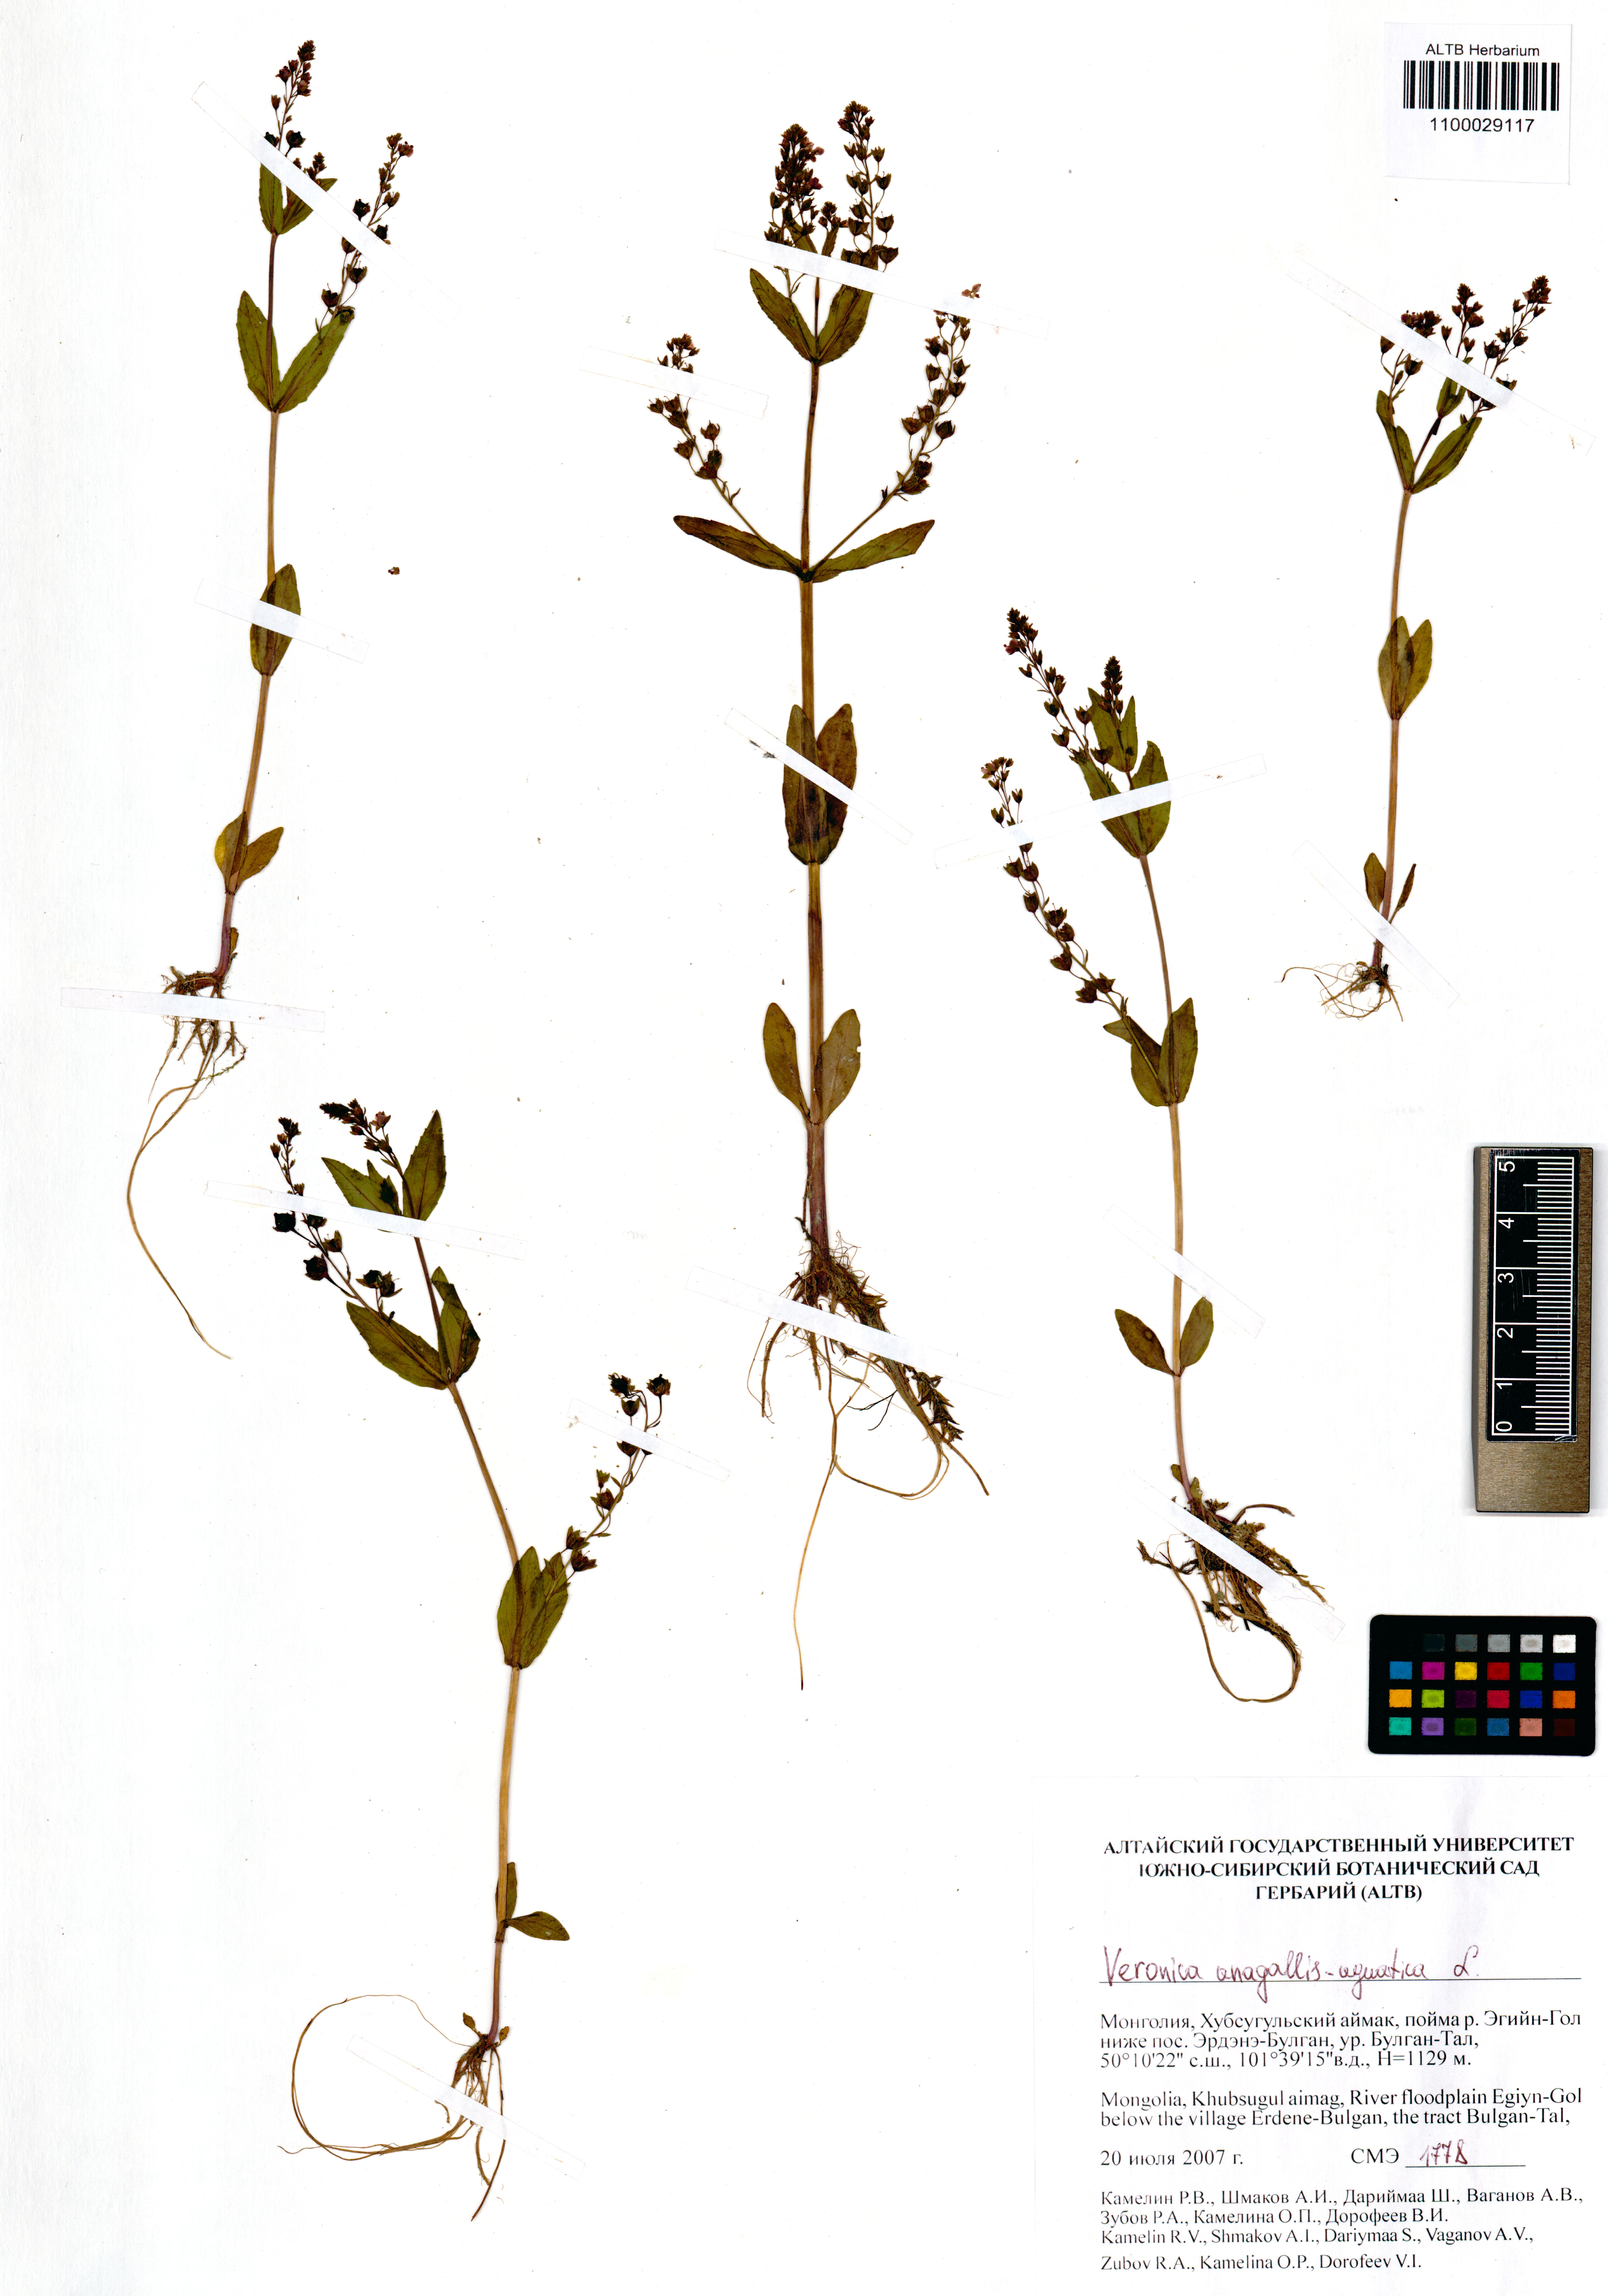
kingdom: Plantae
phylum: Tracheophyta
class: Magnoliopsida
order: Lamiales
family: Plantaginaceae
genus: Veronica
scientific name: Veronica anagallis-aquatica
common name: Water speedwell
